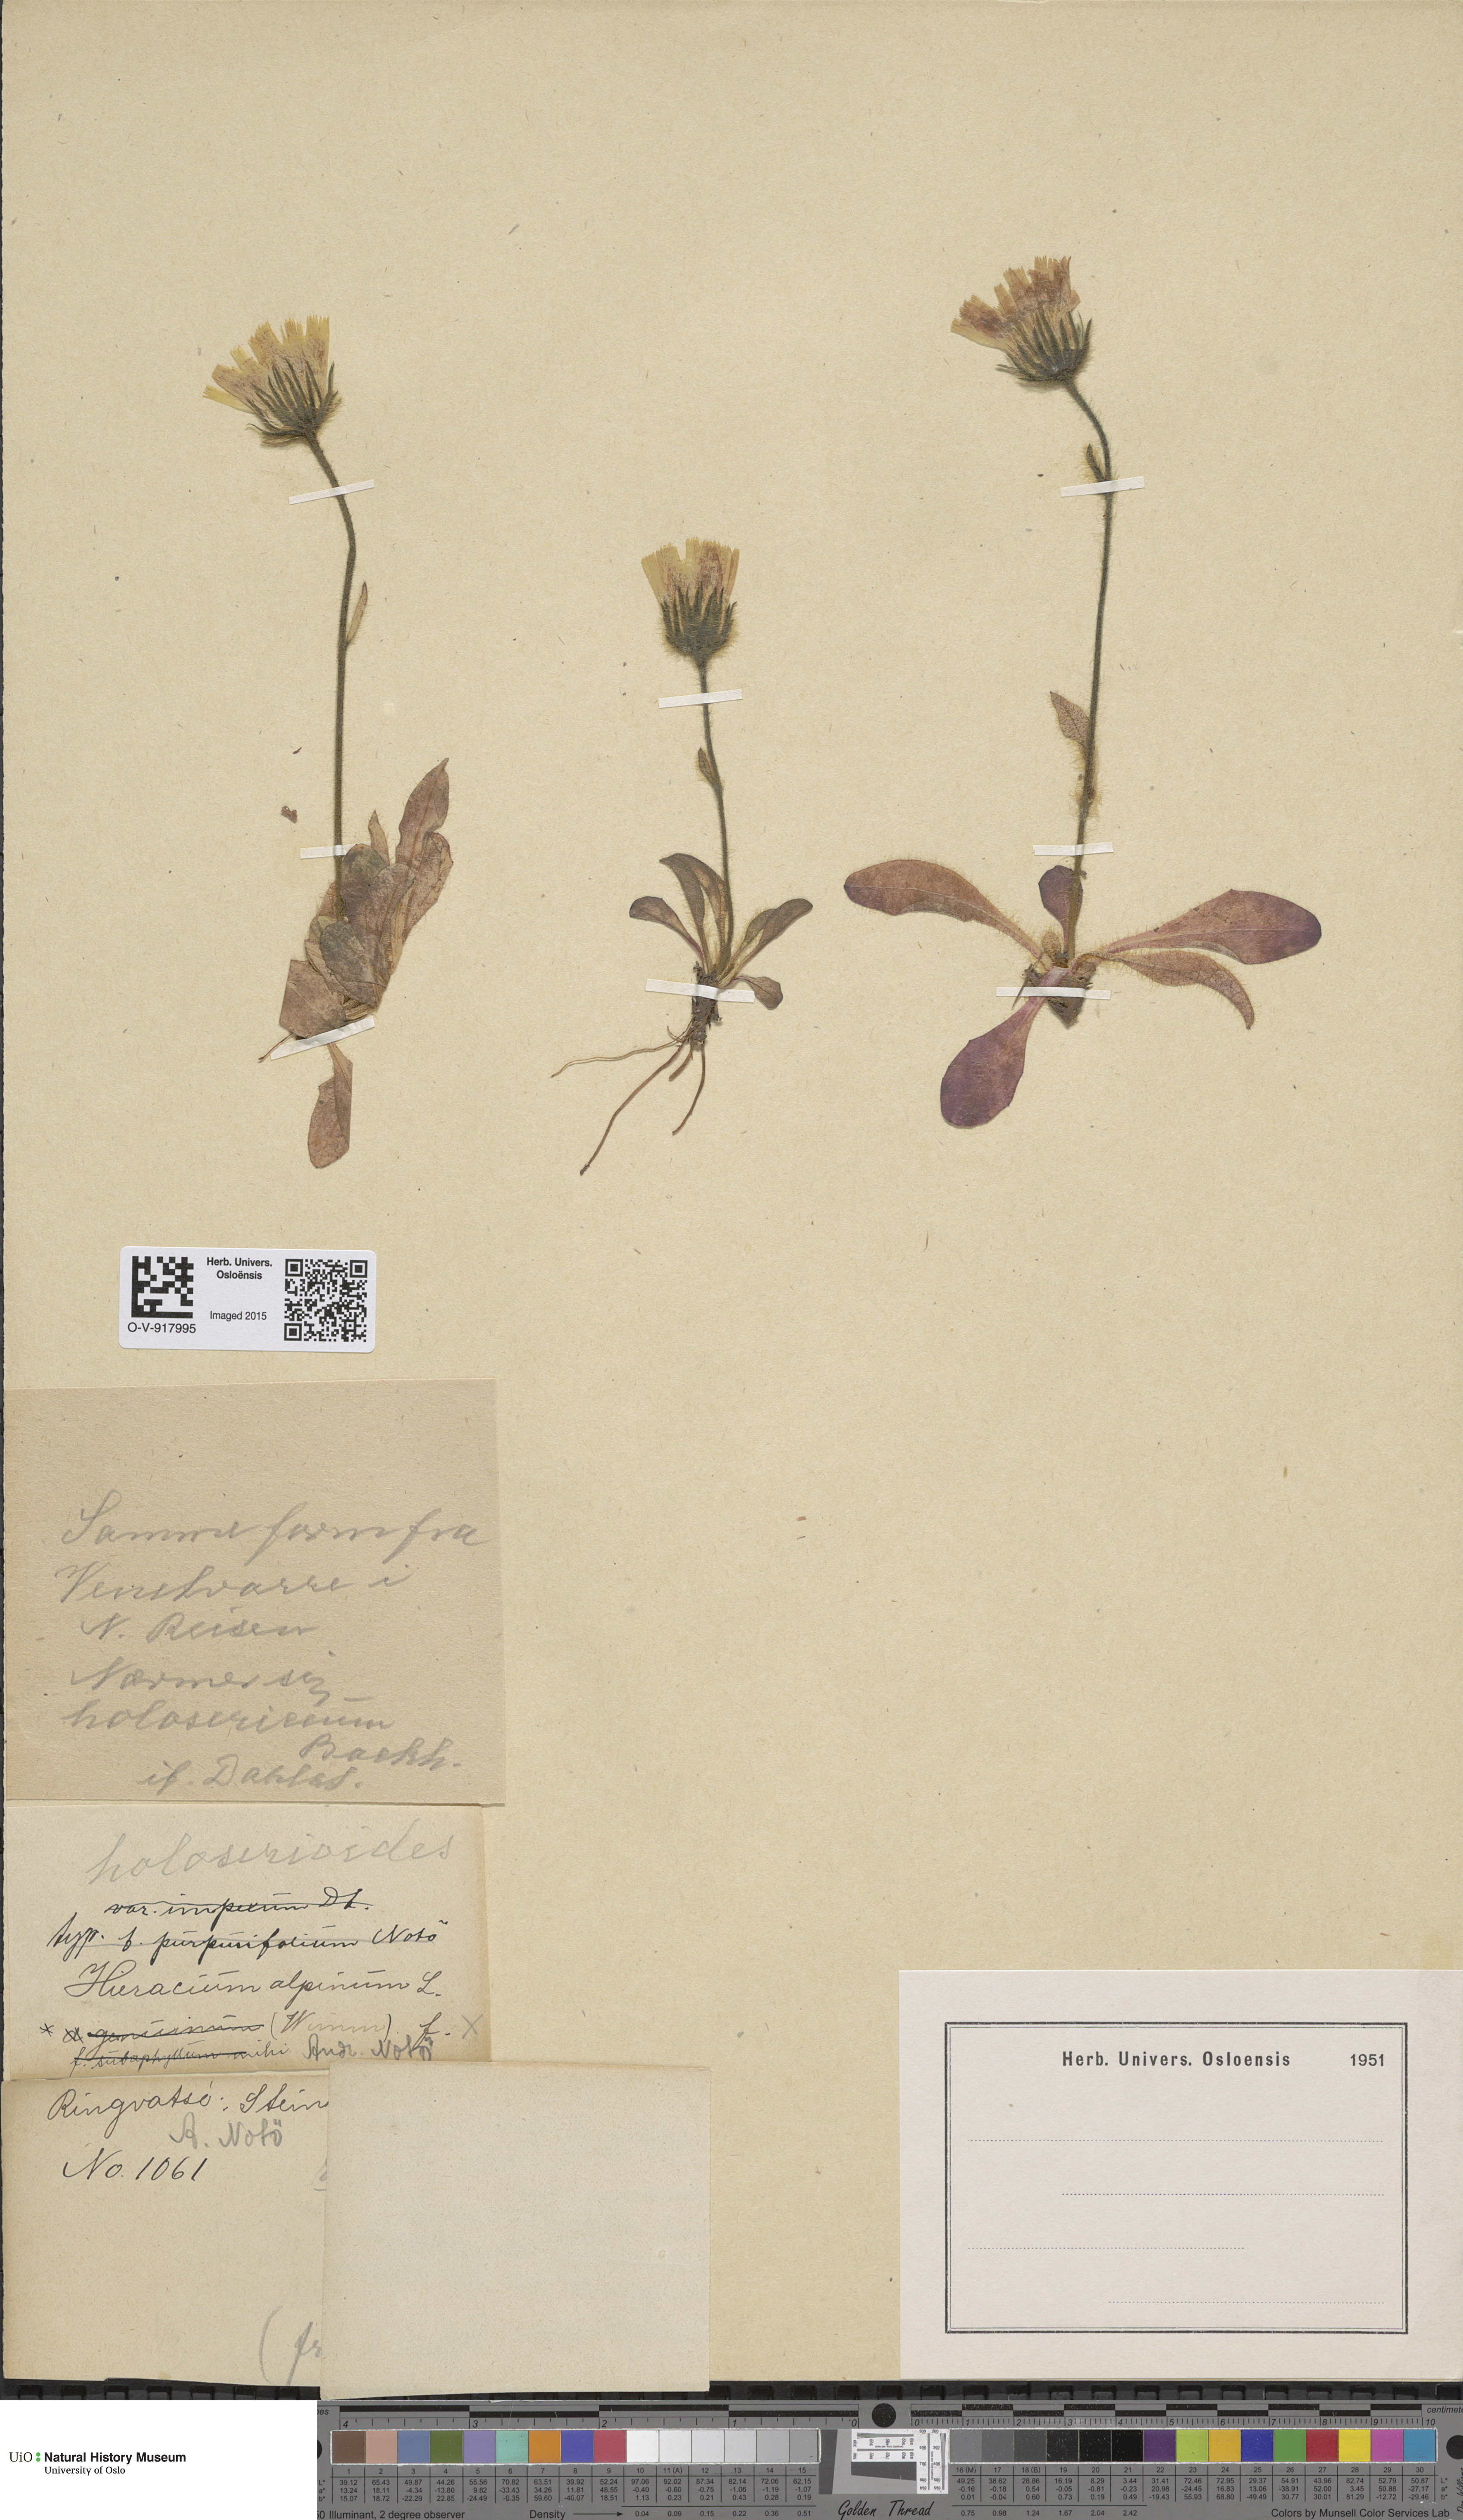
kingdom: Plantae
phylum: Tracheophyta
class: Magnoliopsida
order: Asterales
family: Asteraceae
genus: Hieracium
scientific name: Hieracium alpinum
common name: Alpine hawkweed
